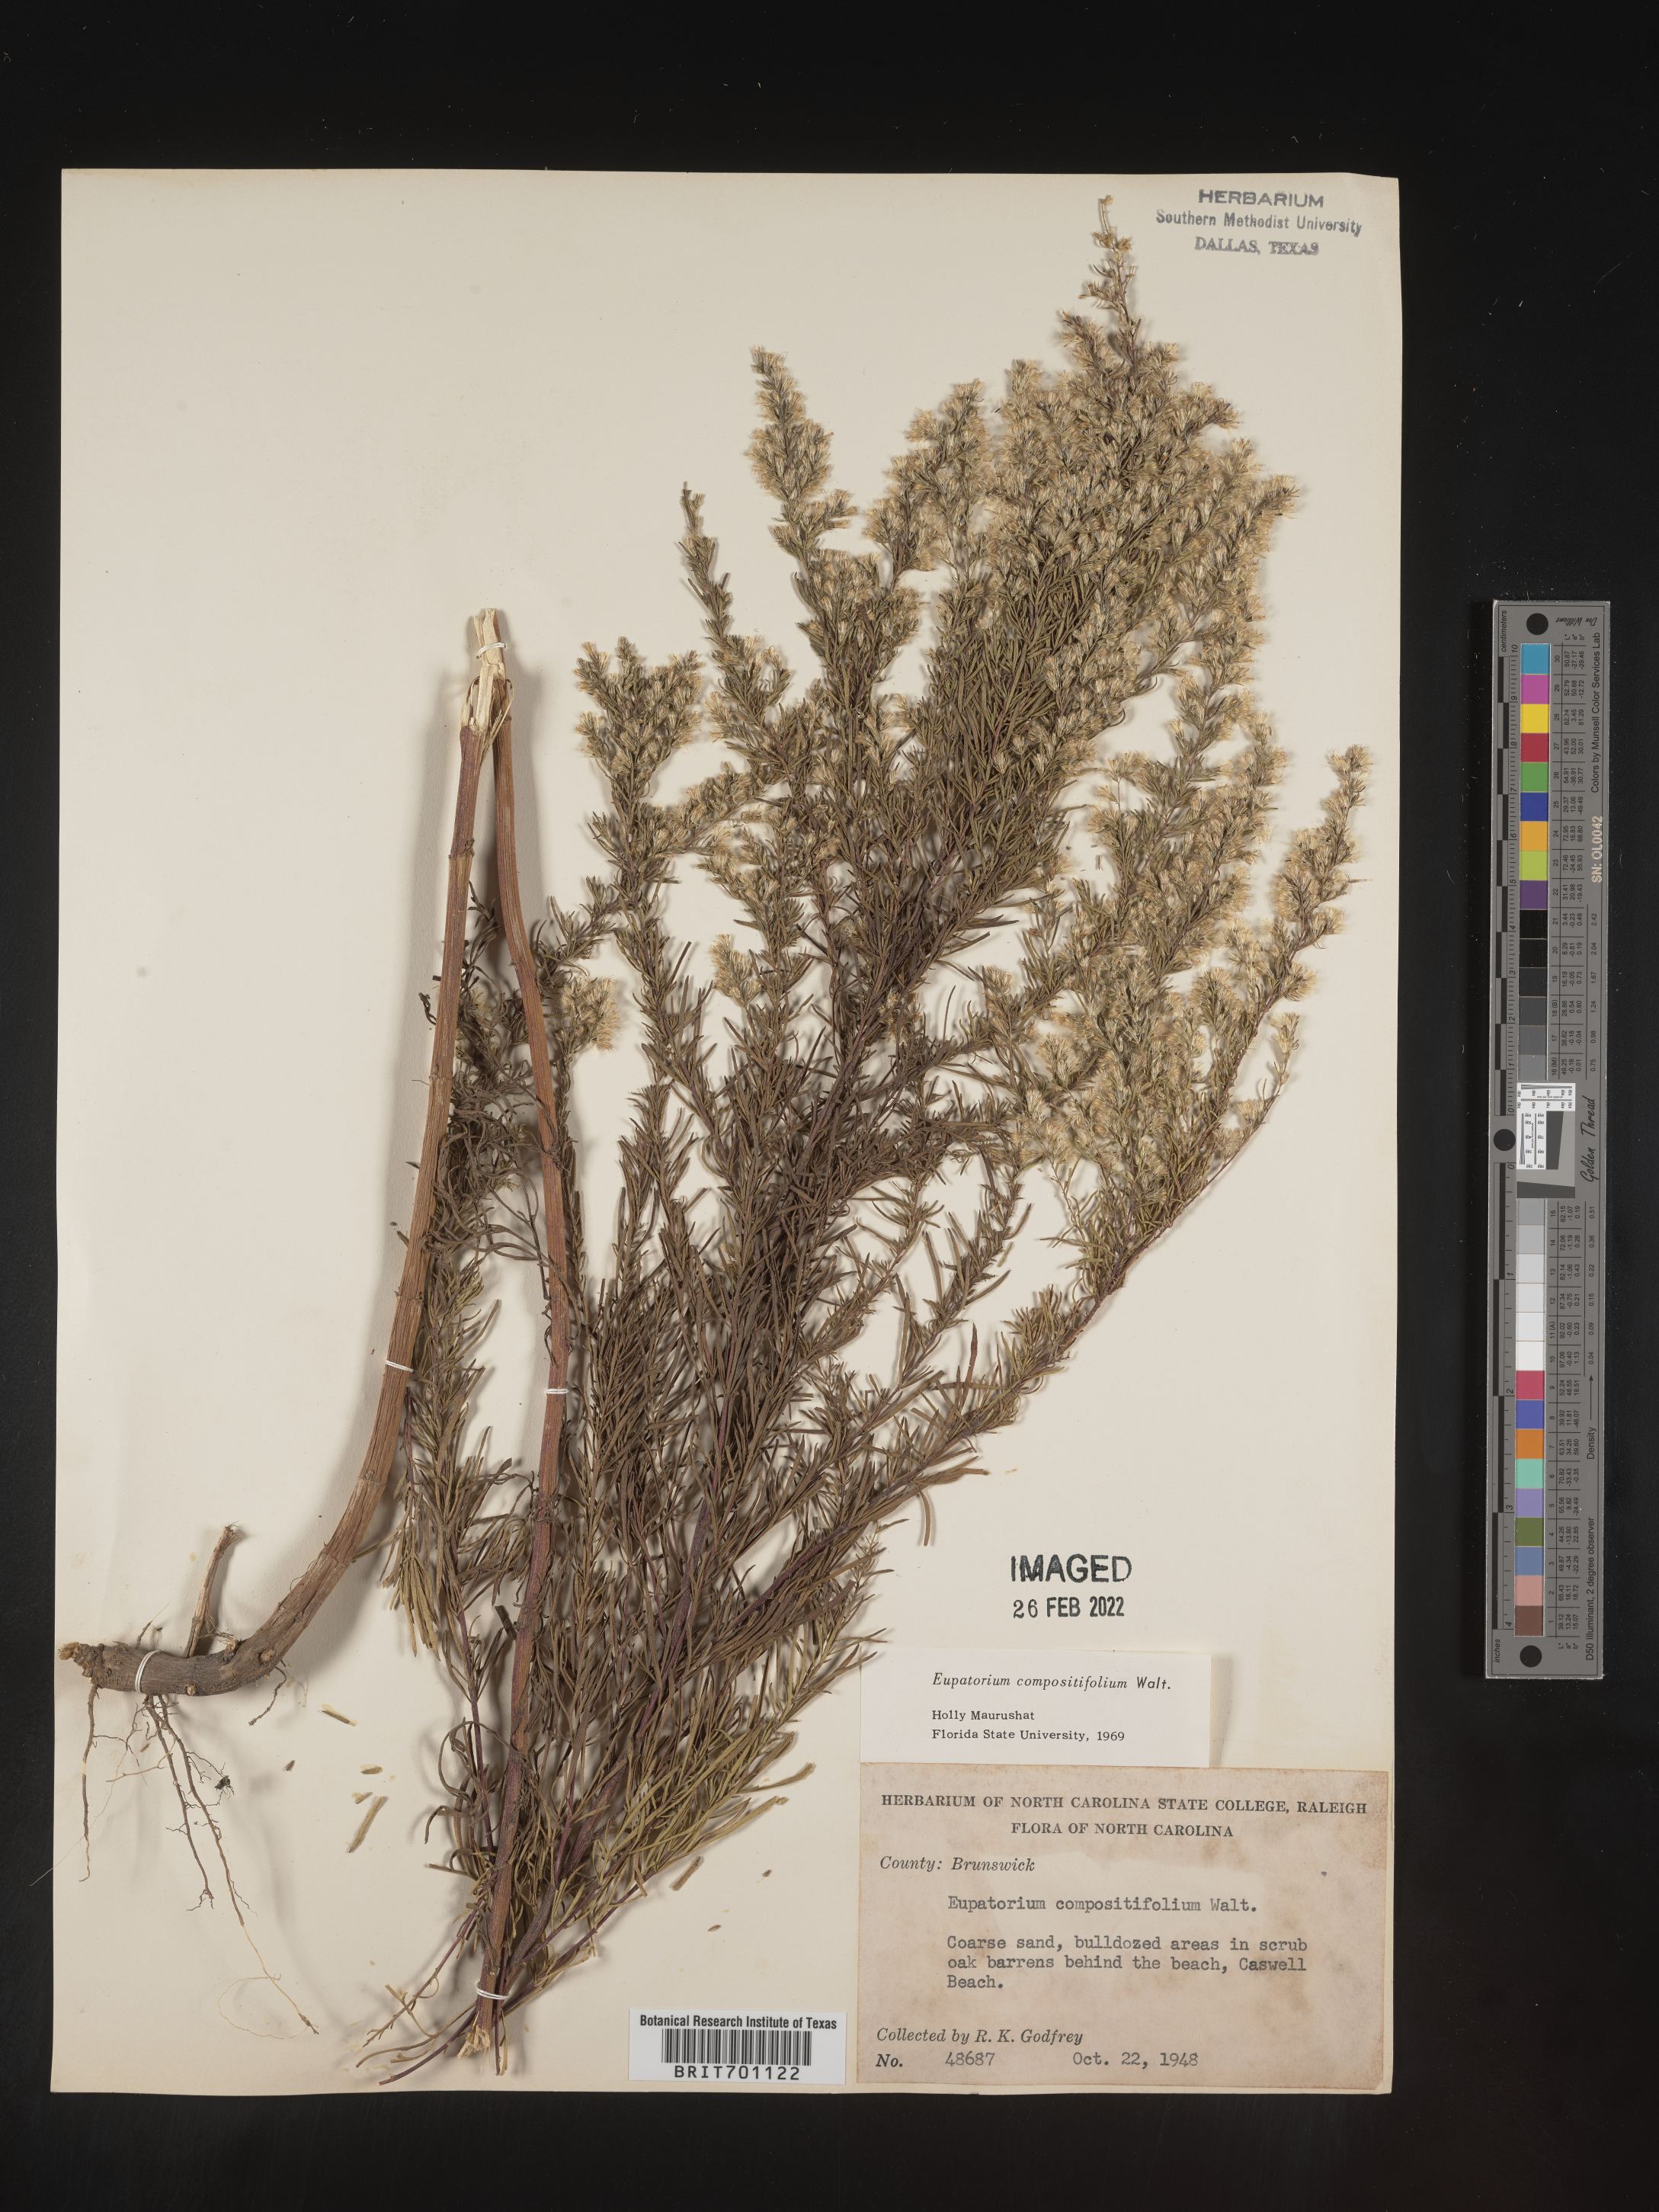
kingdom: Plantae
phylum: Tracheophyta
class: Magnoliopsida
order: Asterales
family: Asteraceae
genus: Eupatorium
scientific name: Eupatorium compositifolium
